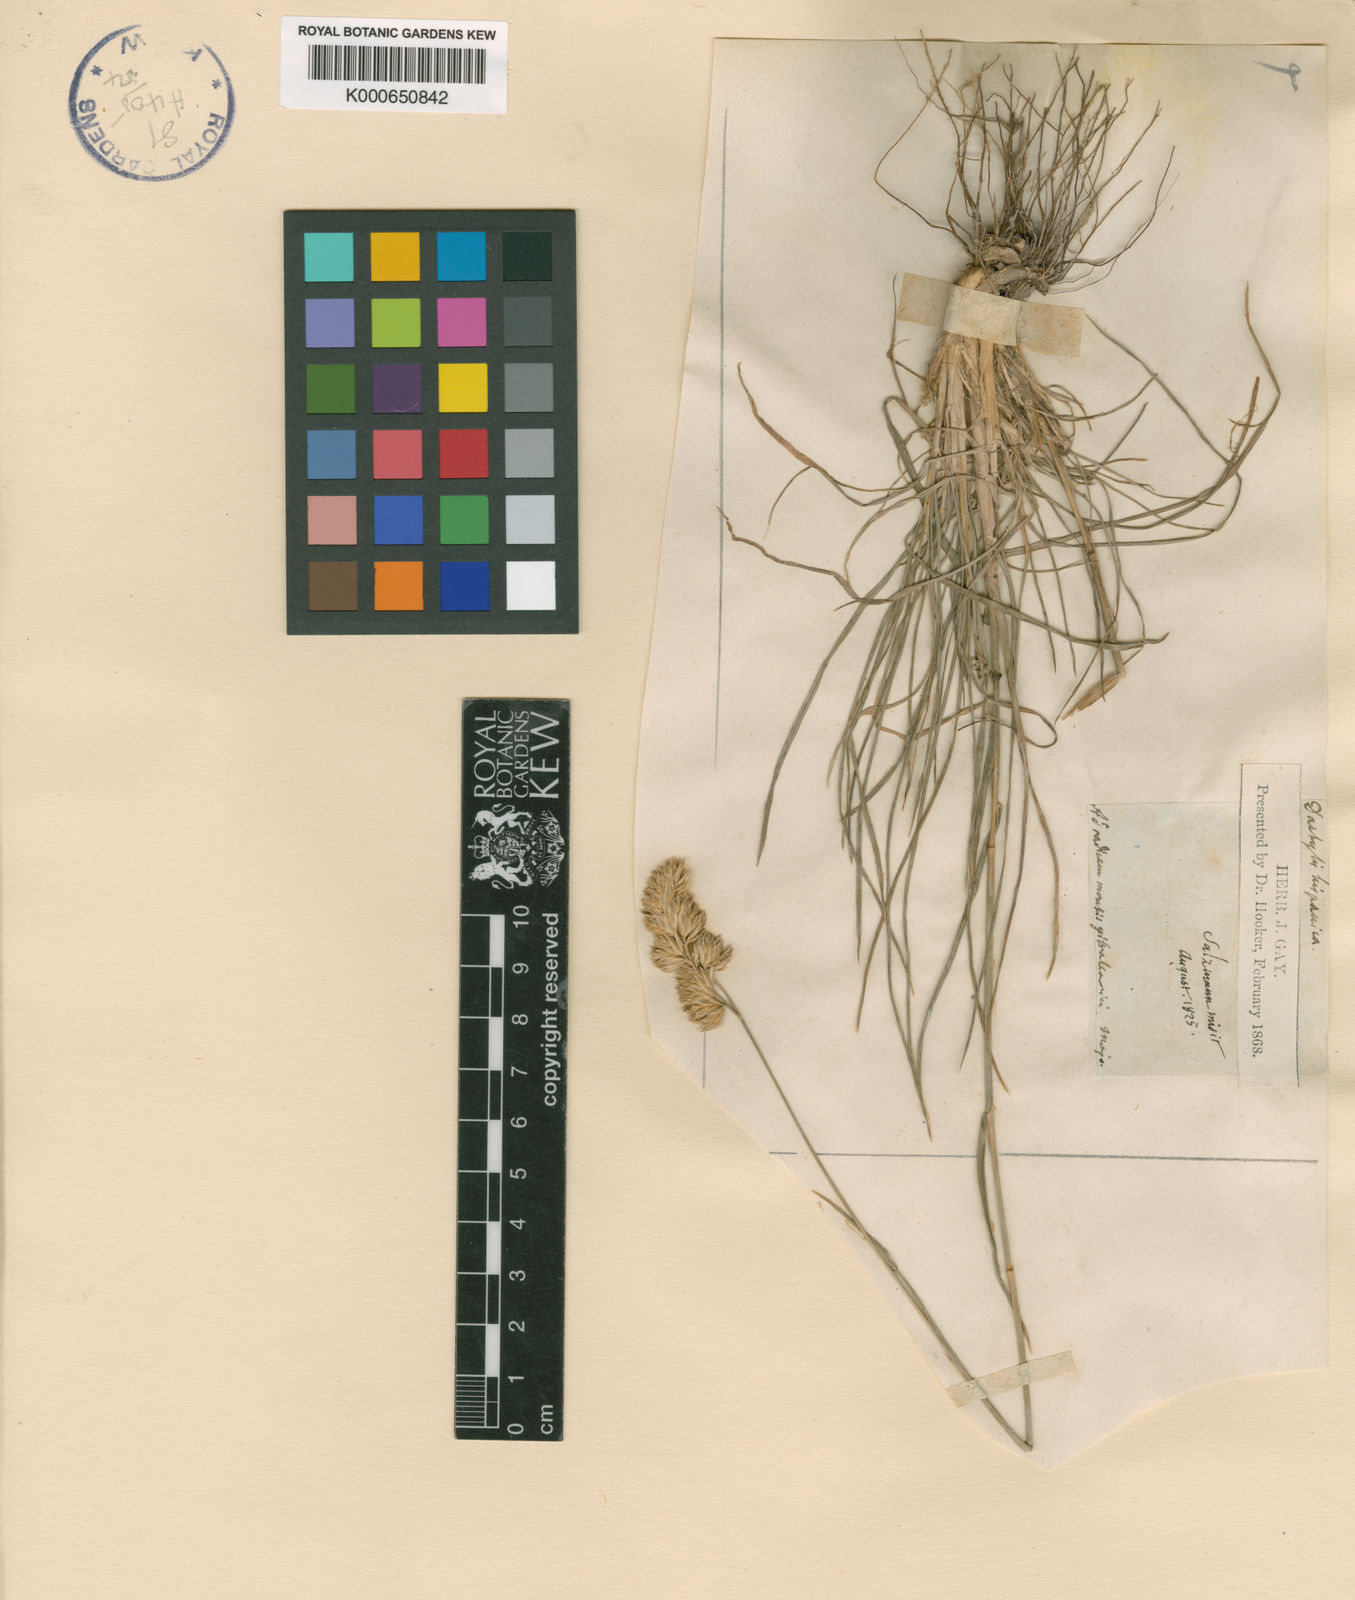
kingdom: Plantae
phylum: Tracheophyta
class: Liliopsida
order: Poales
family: Poaceae
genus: Dactylis
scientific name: Dactylis glomerata
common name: Orchardgrass
